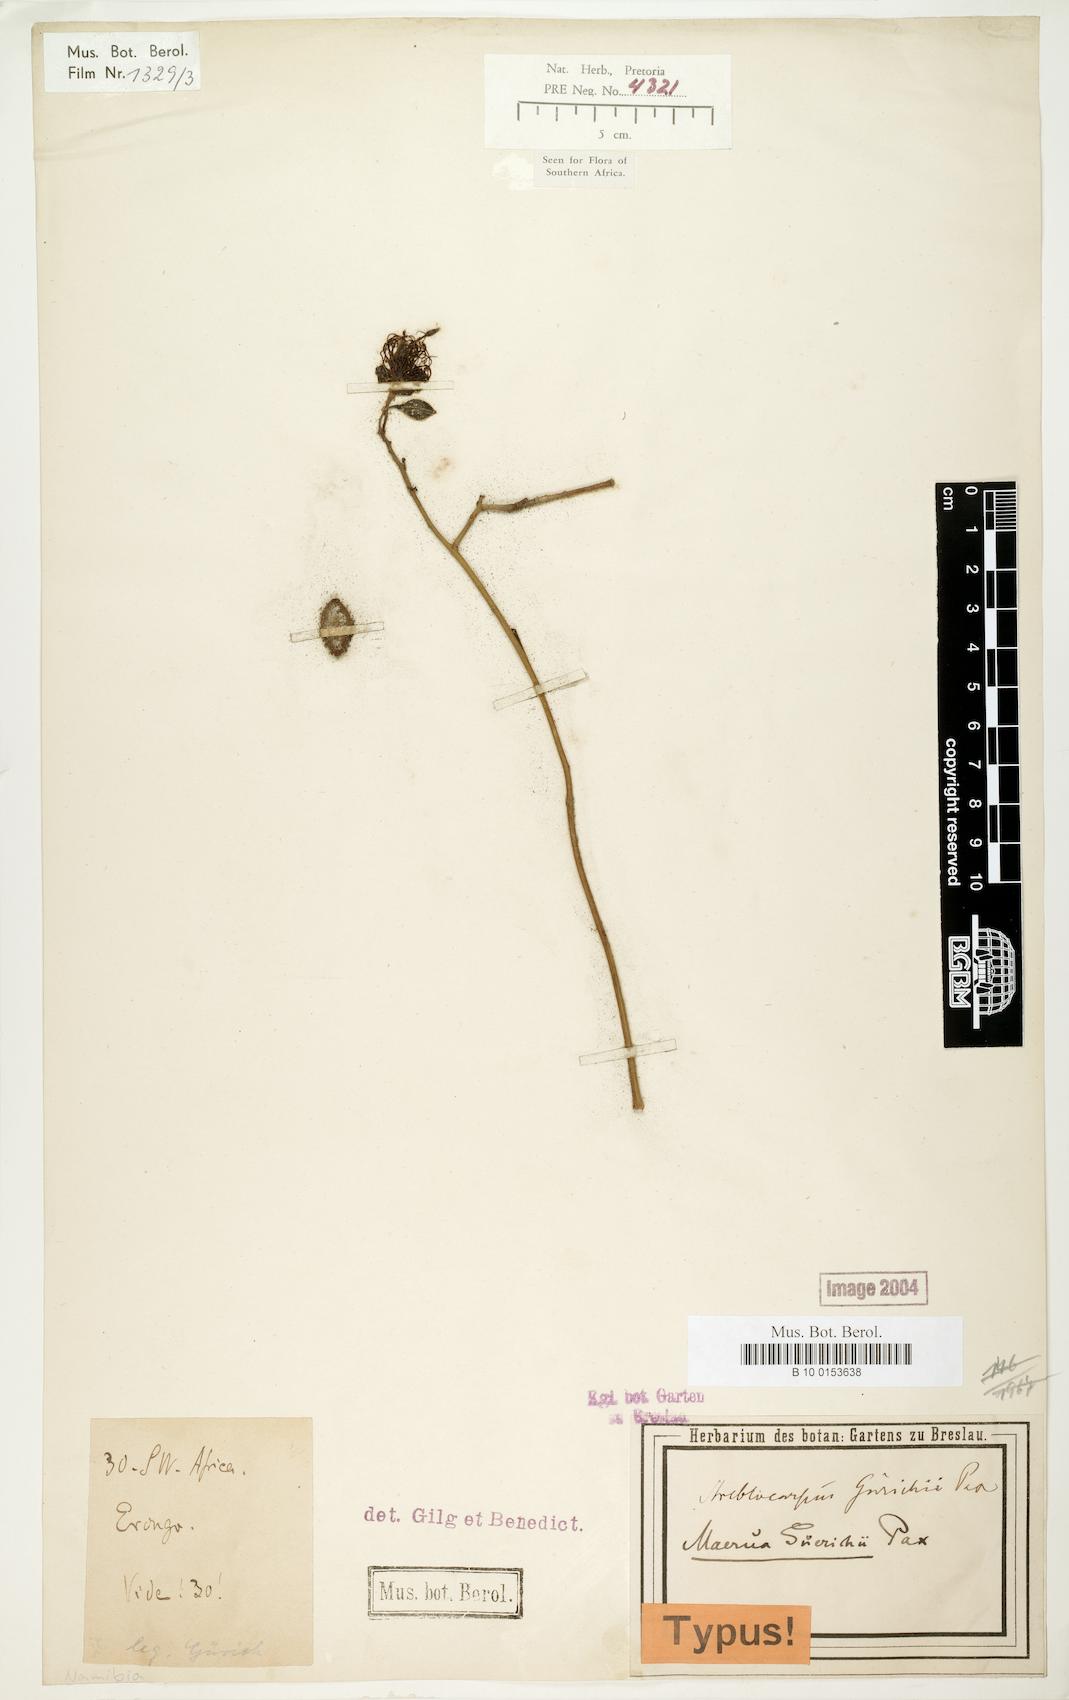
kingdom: Plantae
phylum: Tracheophyta
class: Magnoliopsida
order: Brassicales
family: Capparaceae
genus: Maerua
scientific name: Maerua juncea
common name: Rough-skinned bush cherry
